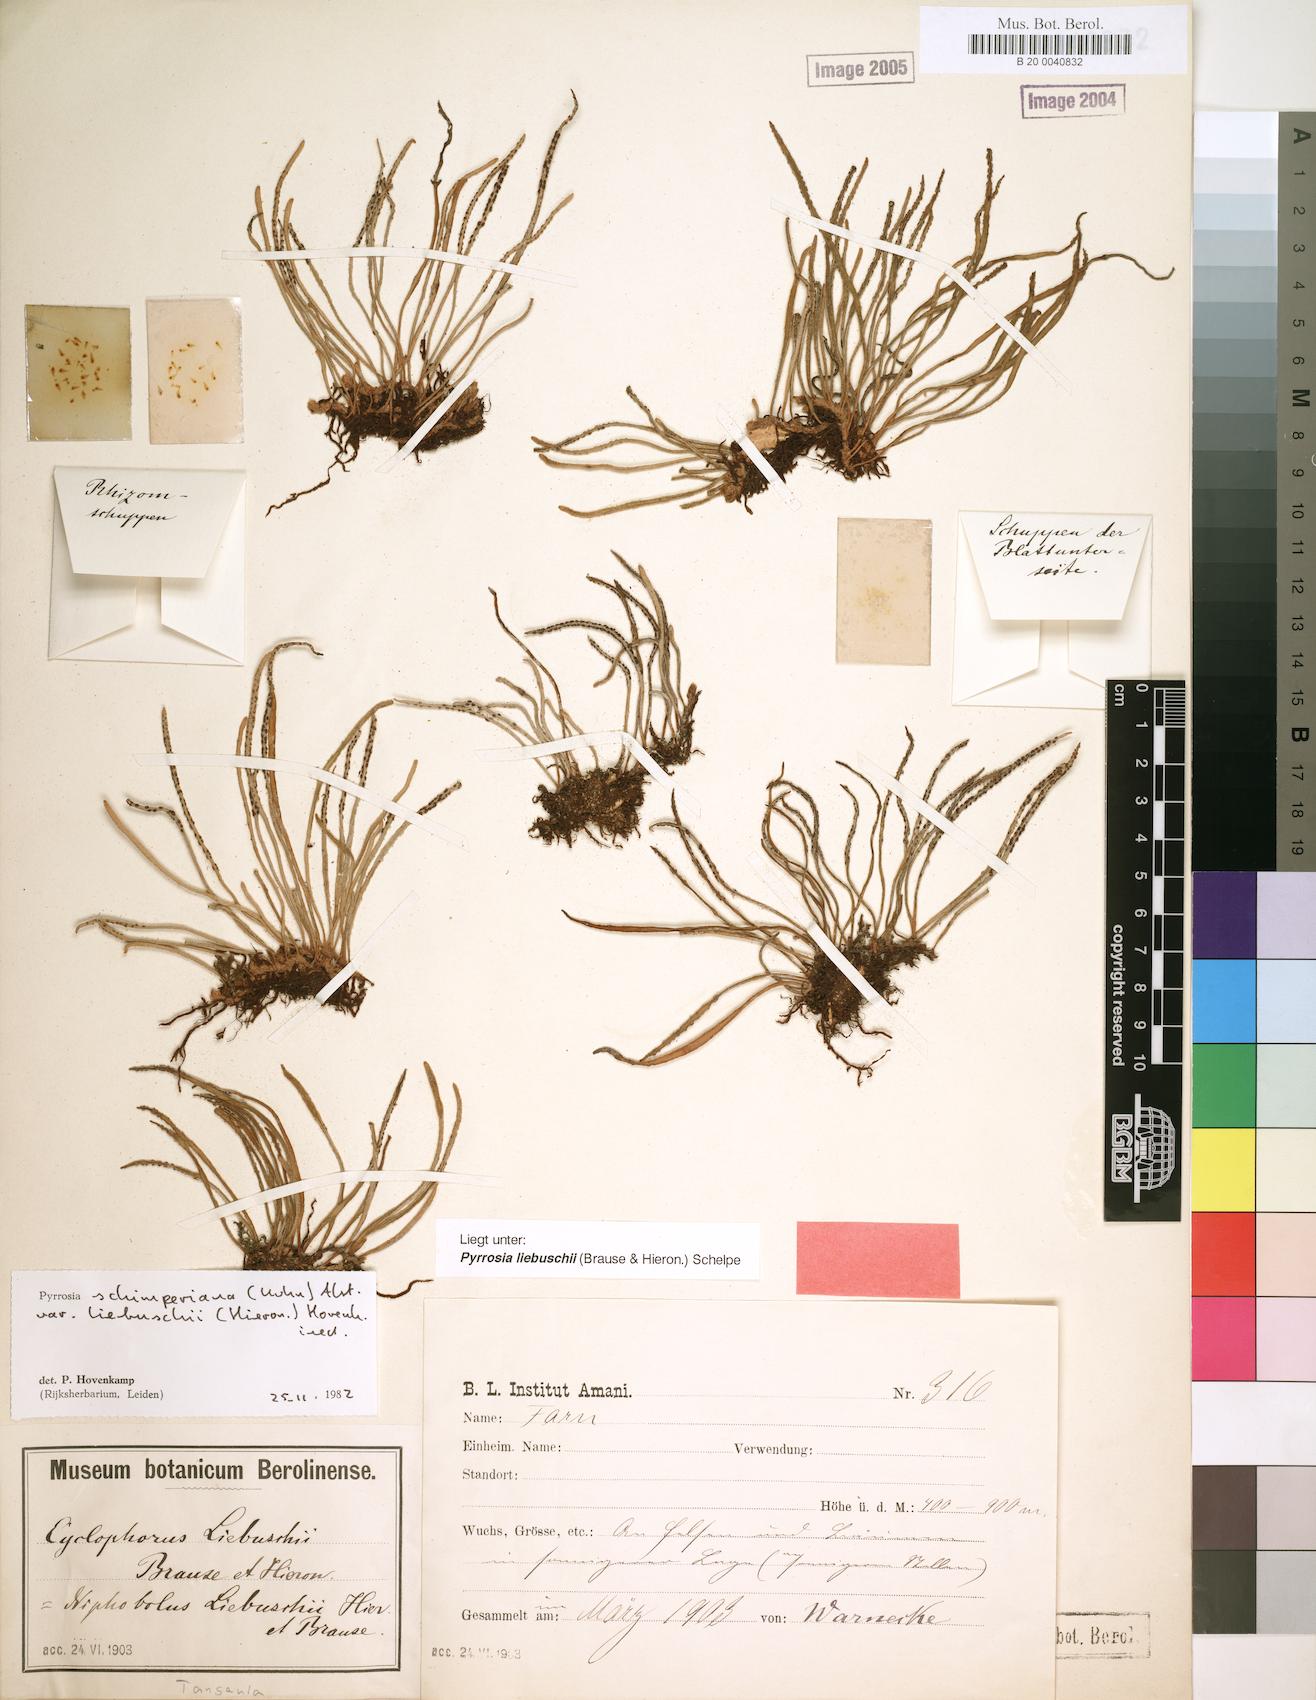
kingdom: Plantae
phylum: Tracheophyta
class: Polypodiopsida
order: Polypodiales
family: Polypodiaceae
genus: Hovenkampia
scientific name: Hovenkampia liebuschii
